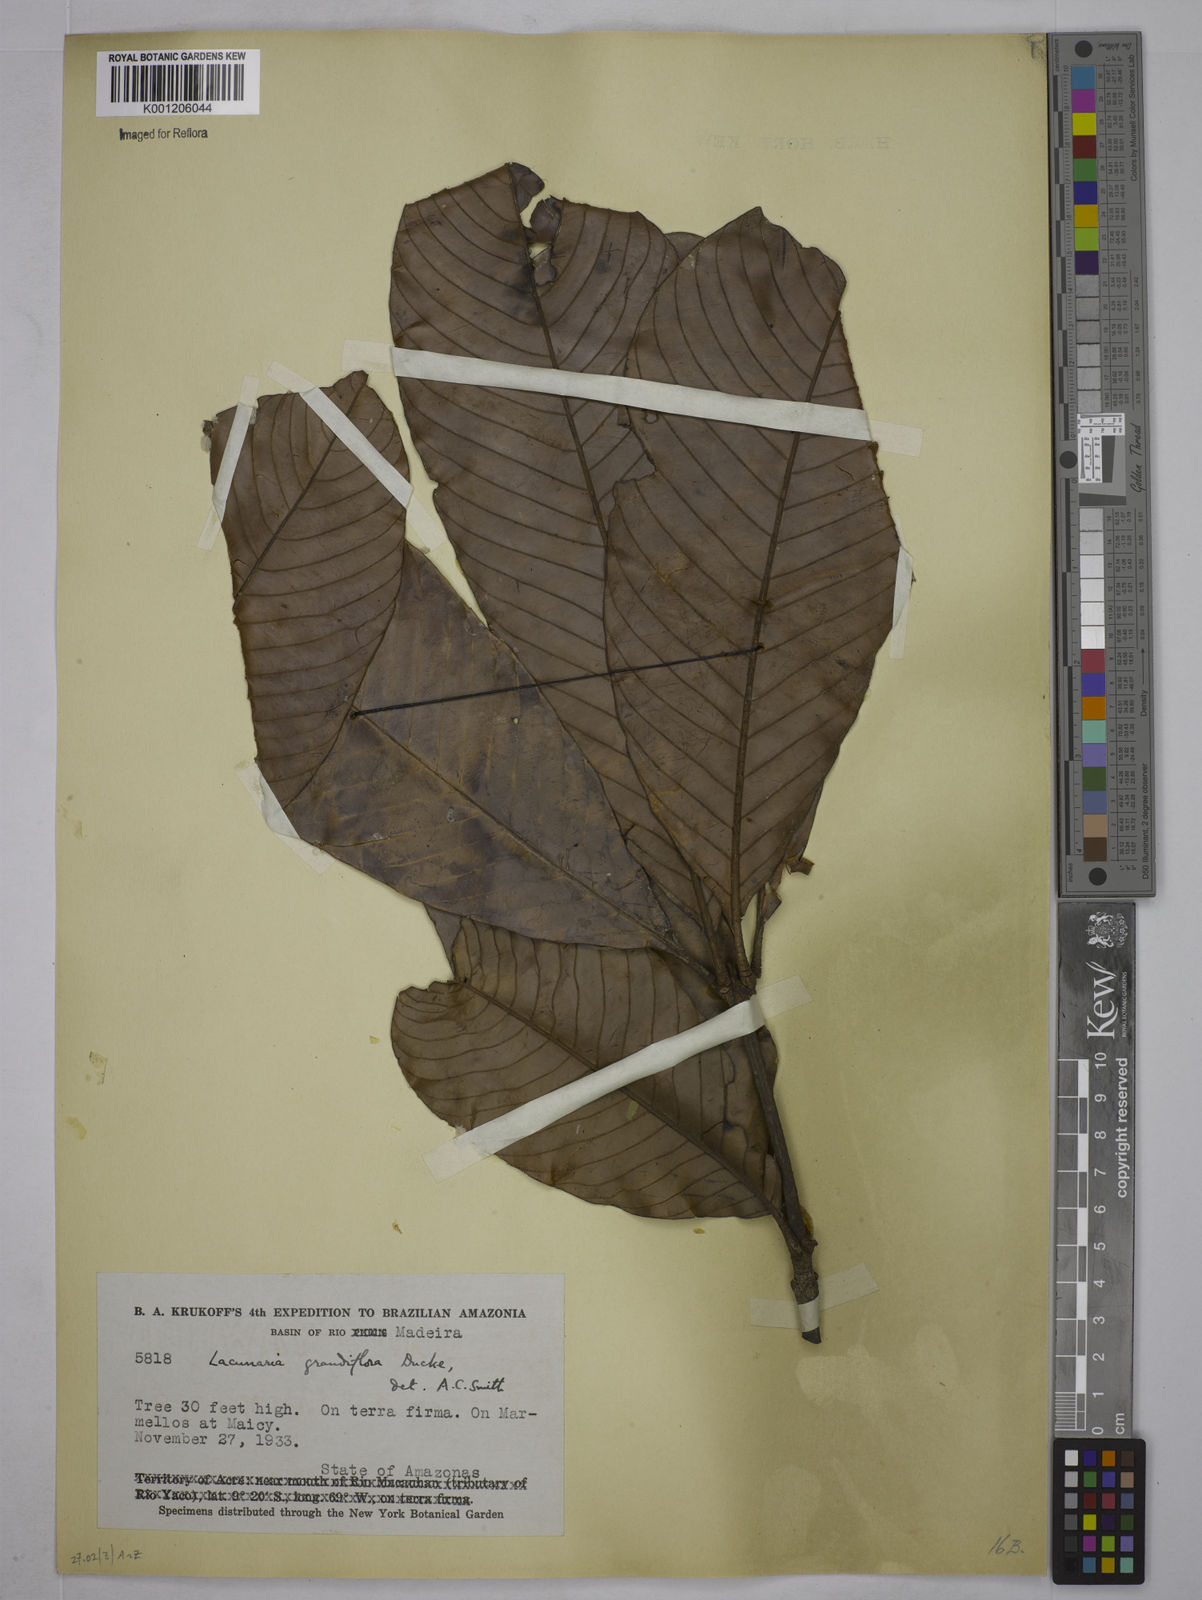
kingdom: Plantae
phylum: Tracheophyta
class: Magnoliopsida
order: Malpighiales
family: Quiinaceae
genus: Lacunaria
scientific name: Lacunaria grandifolia
